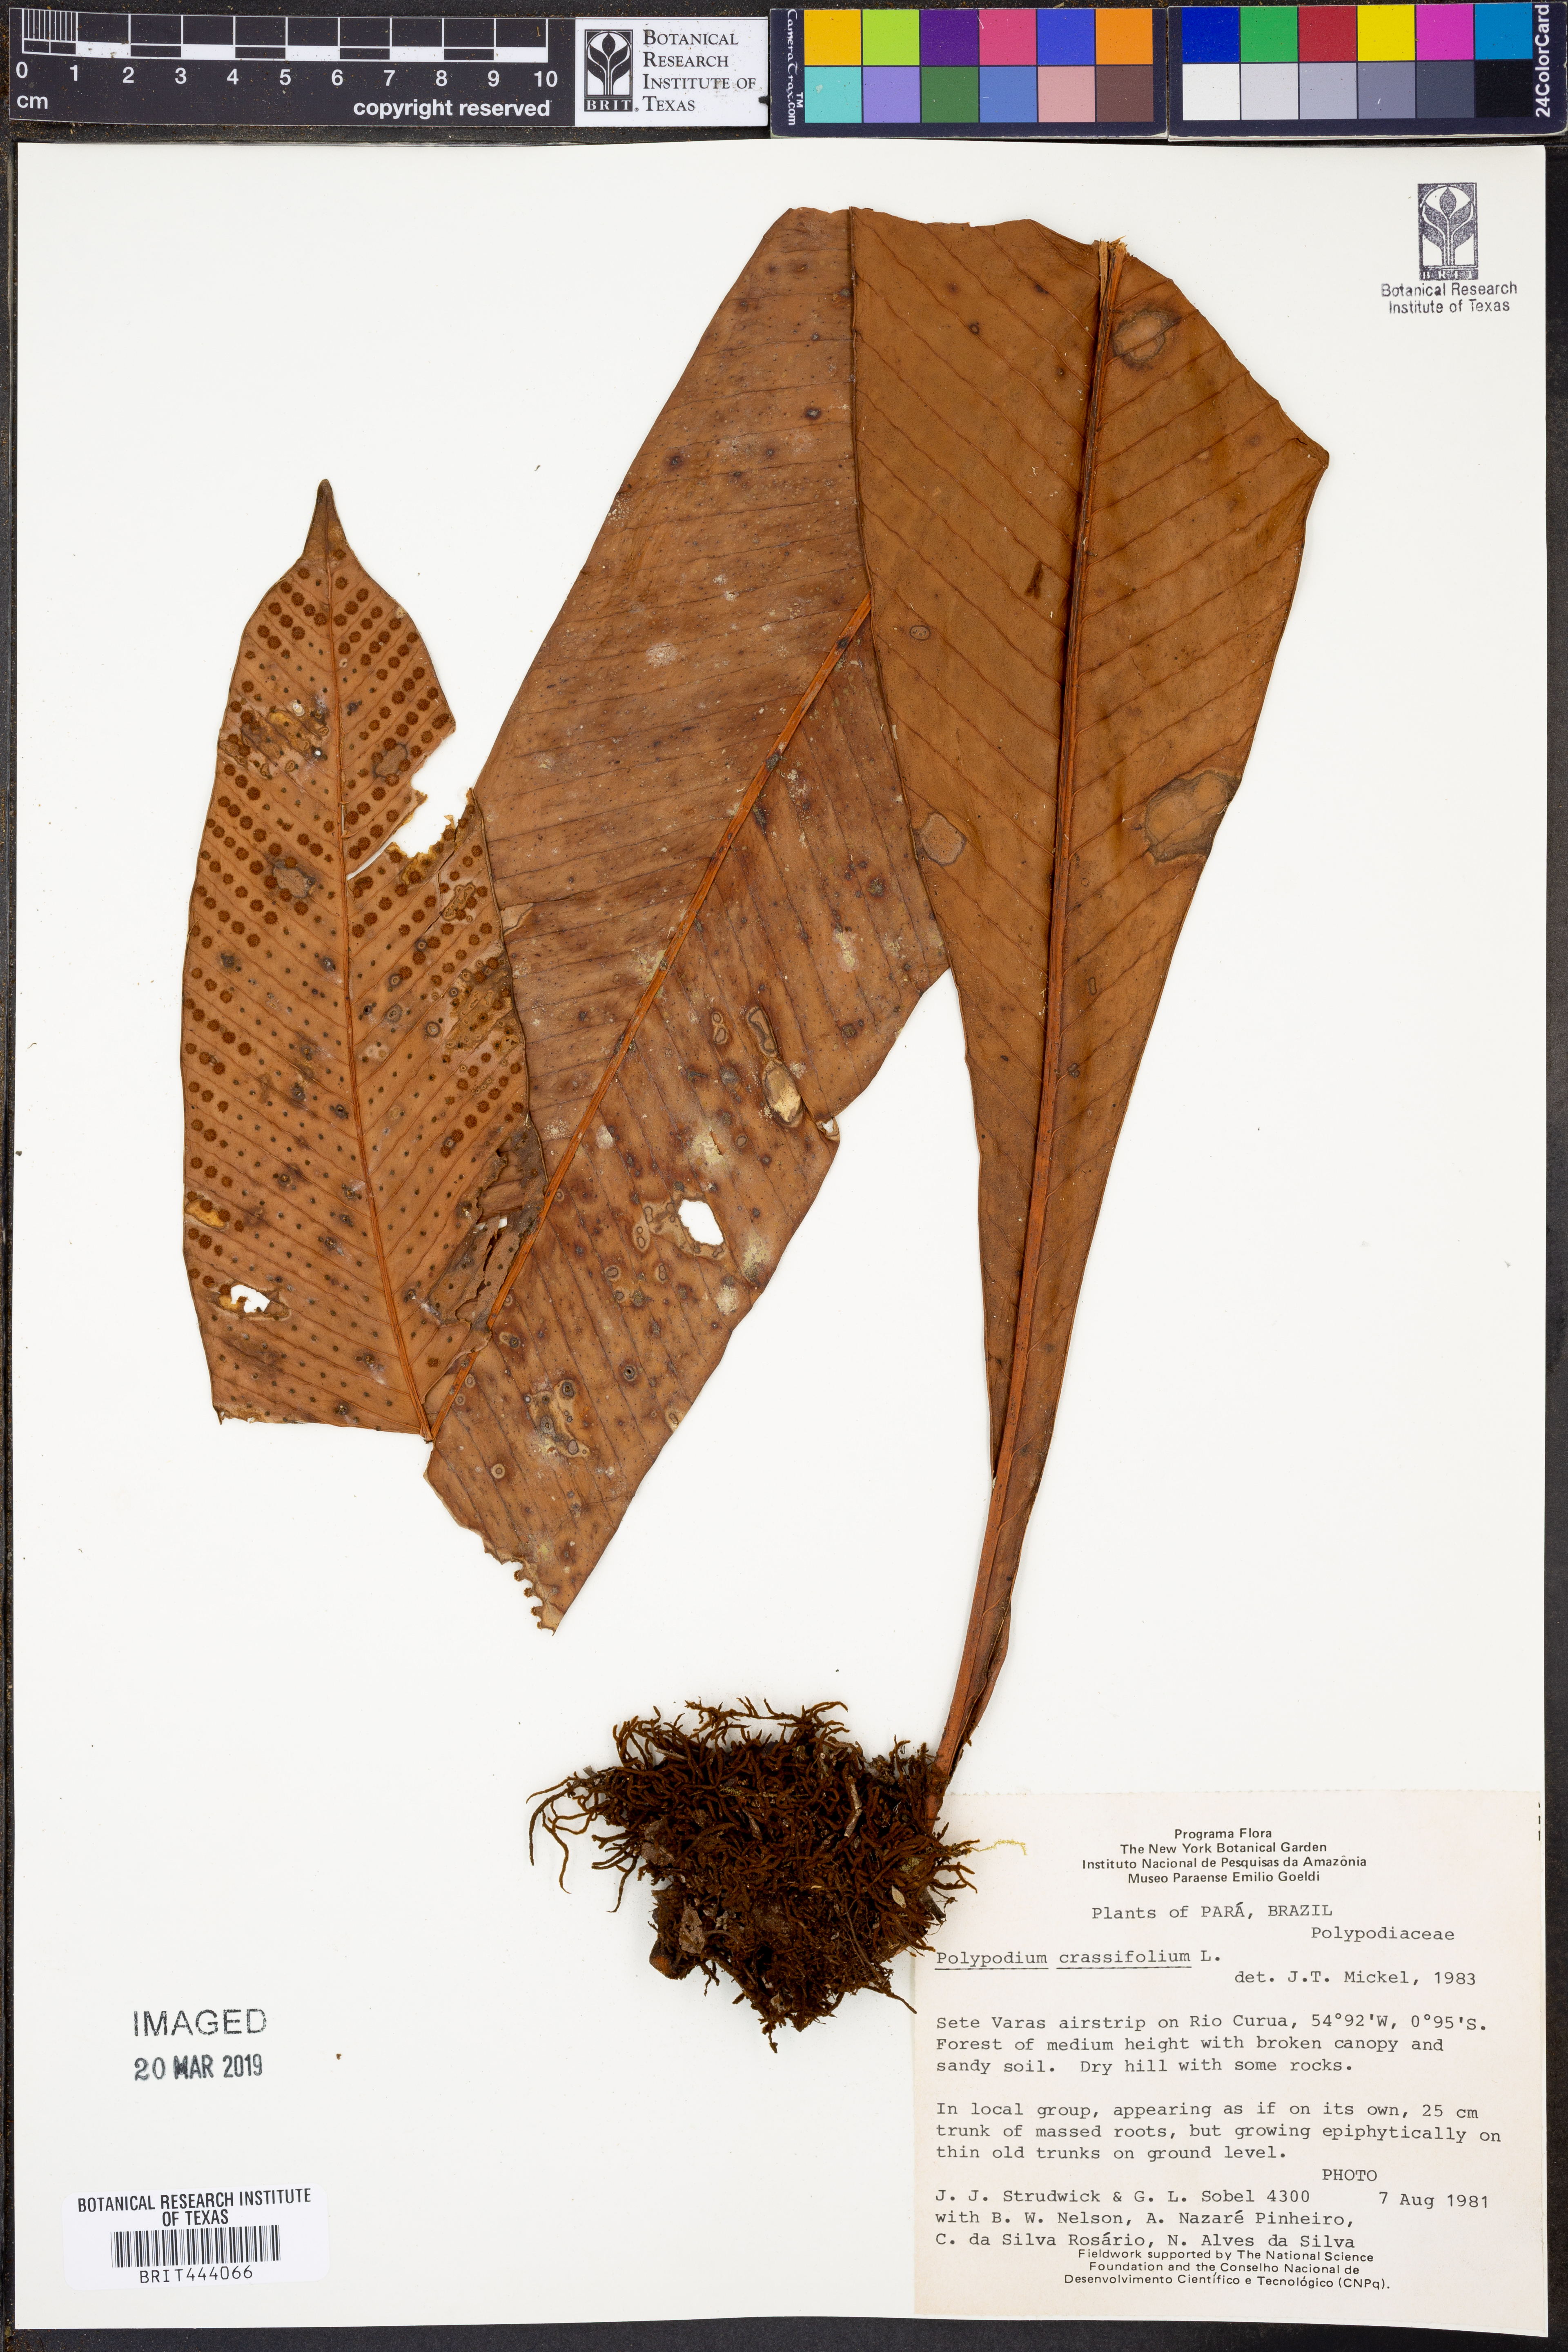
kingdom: Plantae
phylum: Tracheophyta
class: Polypodiopsida
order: Polypodiales
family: Polypodiaceae
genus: Niphidium
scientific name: Niphidium crassifolium
